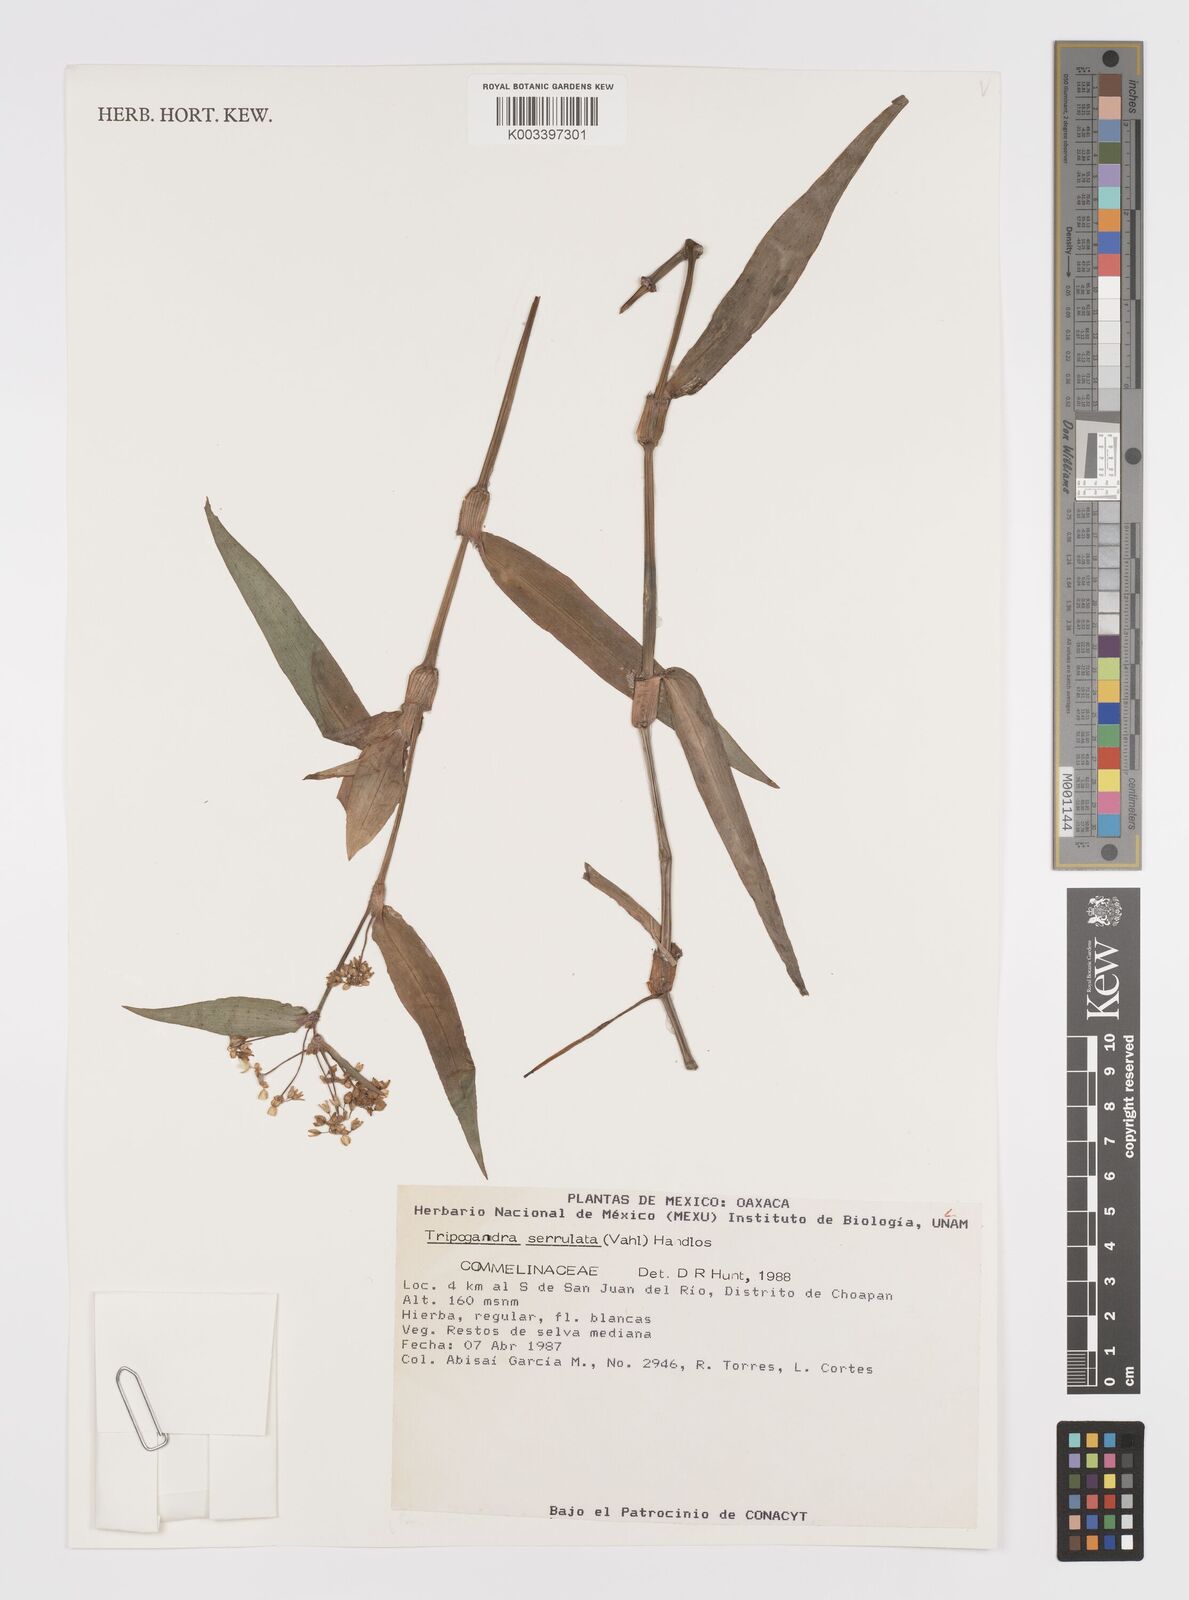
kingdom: Plantae
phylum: Tracheophyta
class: Liliopsida
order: Commelinales
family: Commelinaceae
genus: Callisia
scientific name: Callisia serrulata
